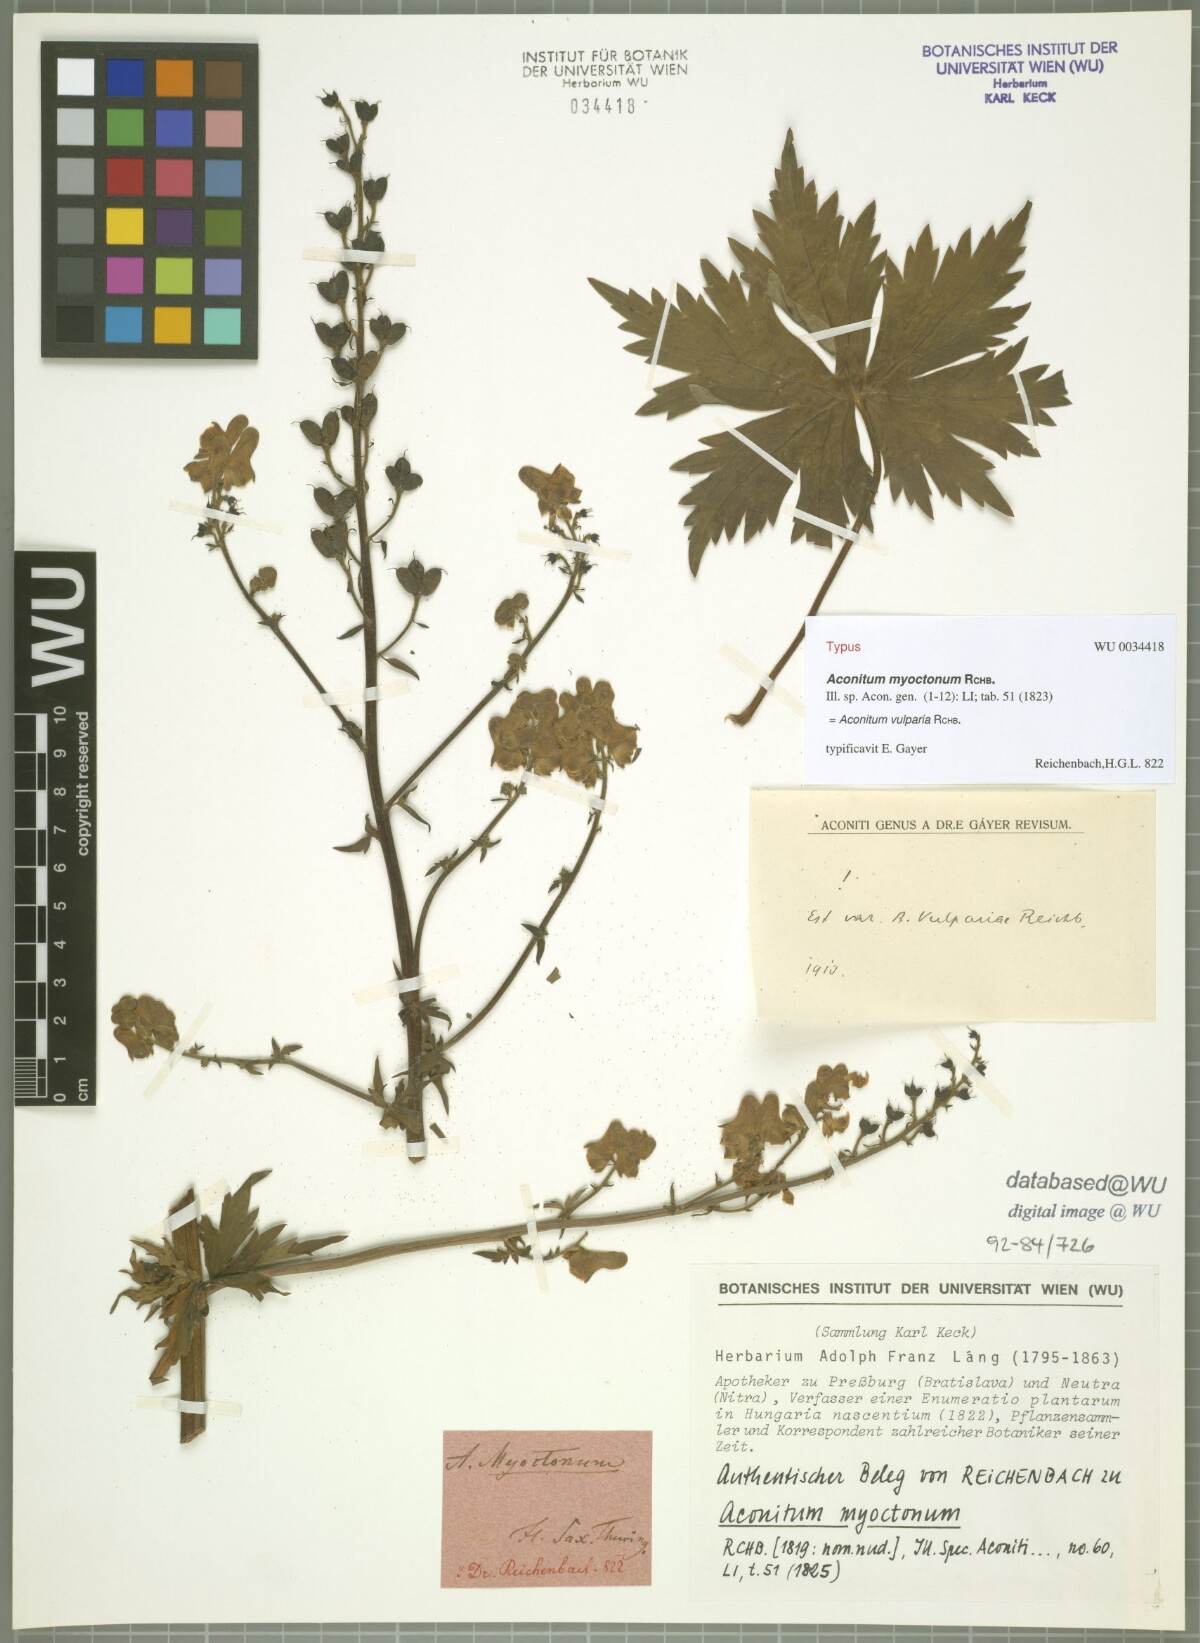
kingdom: Plantae
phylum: Tracheophyta
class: Magnoliopsida
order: Ranunculales
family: Ranunculaceae
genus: Aconitum
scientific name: Aconitum lycoctonum
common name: Wolf's-bane
